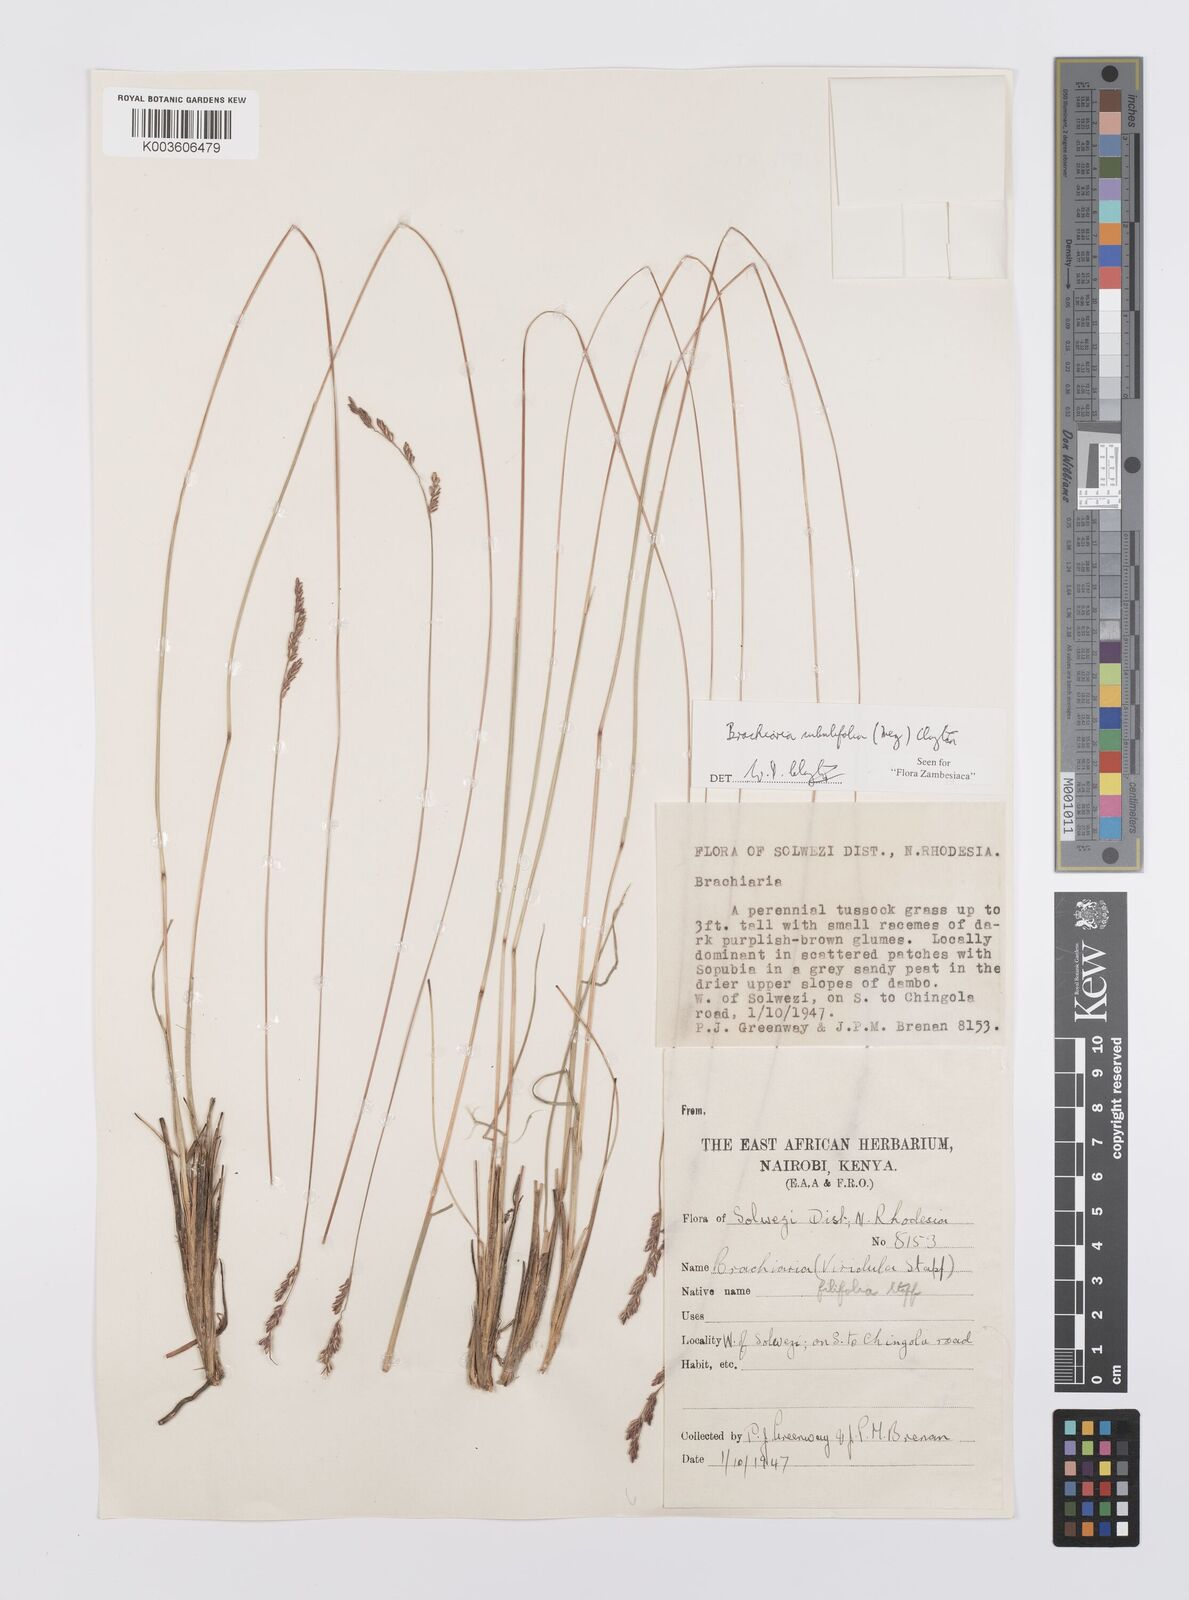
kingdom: Plantae
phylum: Tracheophyta
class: Liliopsida
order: Poales
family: Poaceae
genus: Urochloa
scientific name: Urochloa subulifolia
